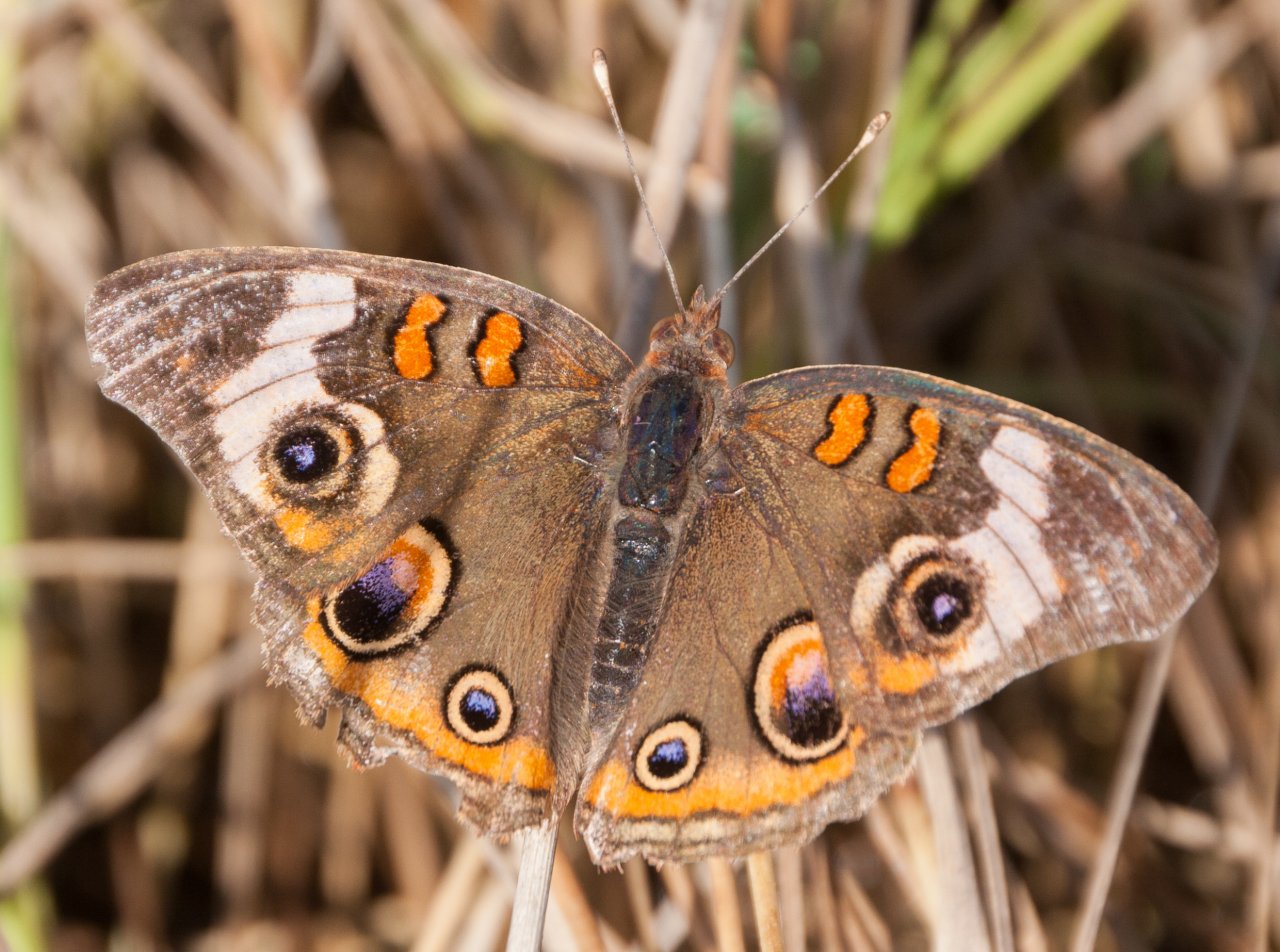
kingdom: Animalia
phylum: Arthropoda
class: Insecta
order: Lepidoptera
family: Nymphalidae
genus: Junonia
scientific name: Junonia coenia
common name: Common Buckeye
